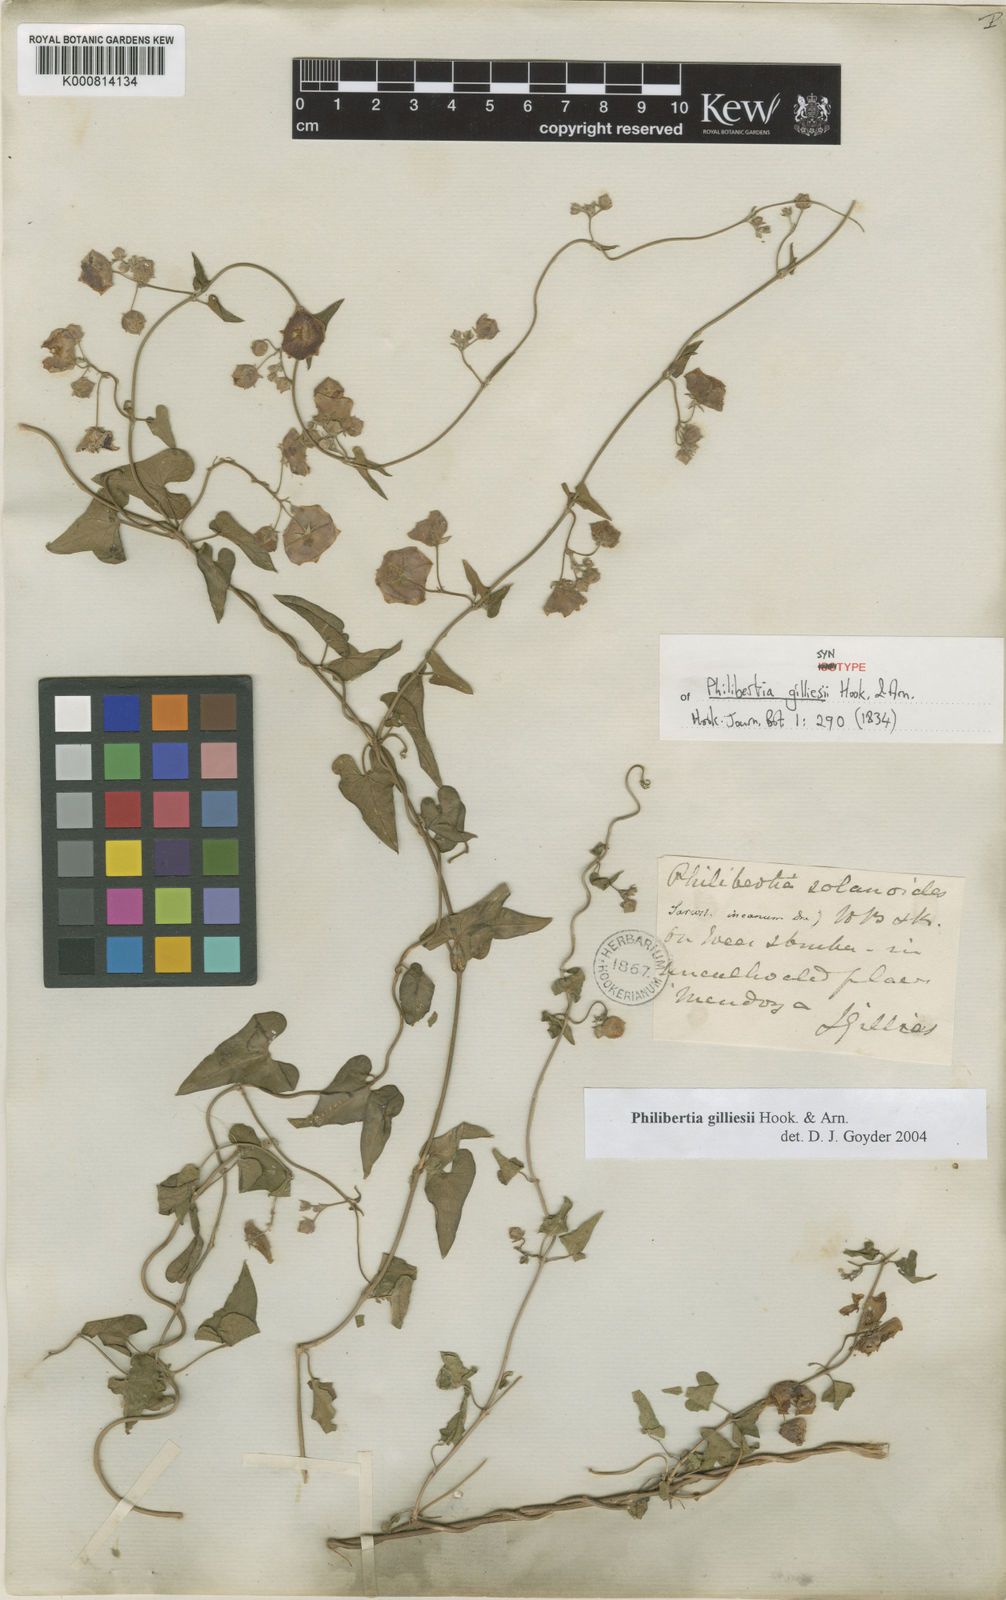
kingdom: Plantae
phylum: Tracheophyta
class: Magnoliopsida
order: Gentianales
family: Apocynaceae
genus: Philibertia
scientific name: Philibertia gilliesii
